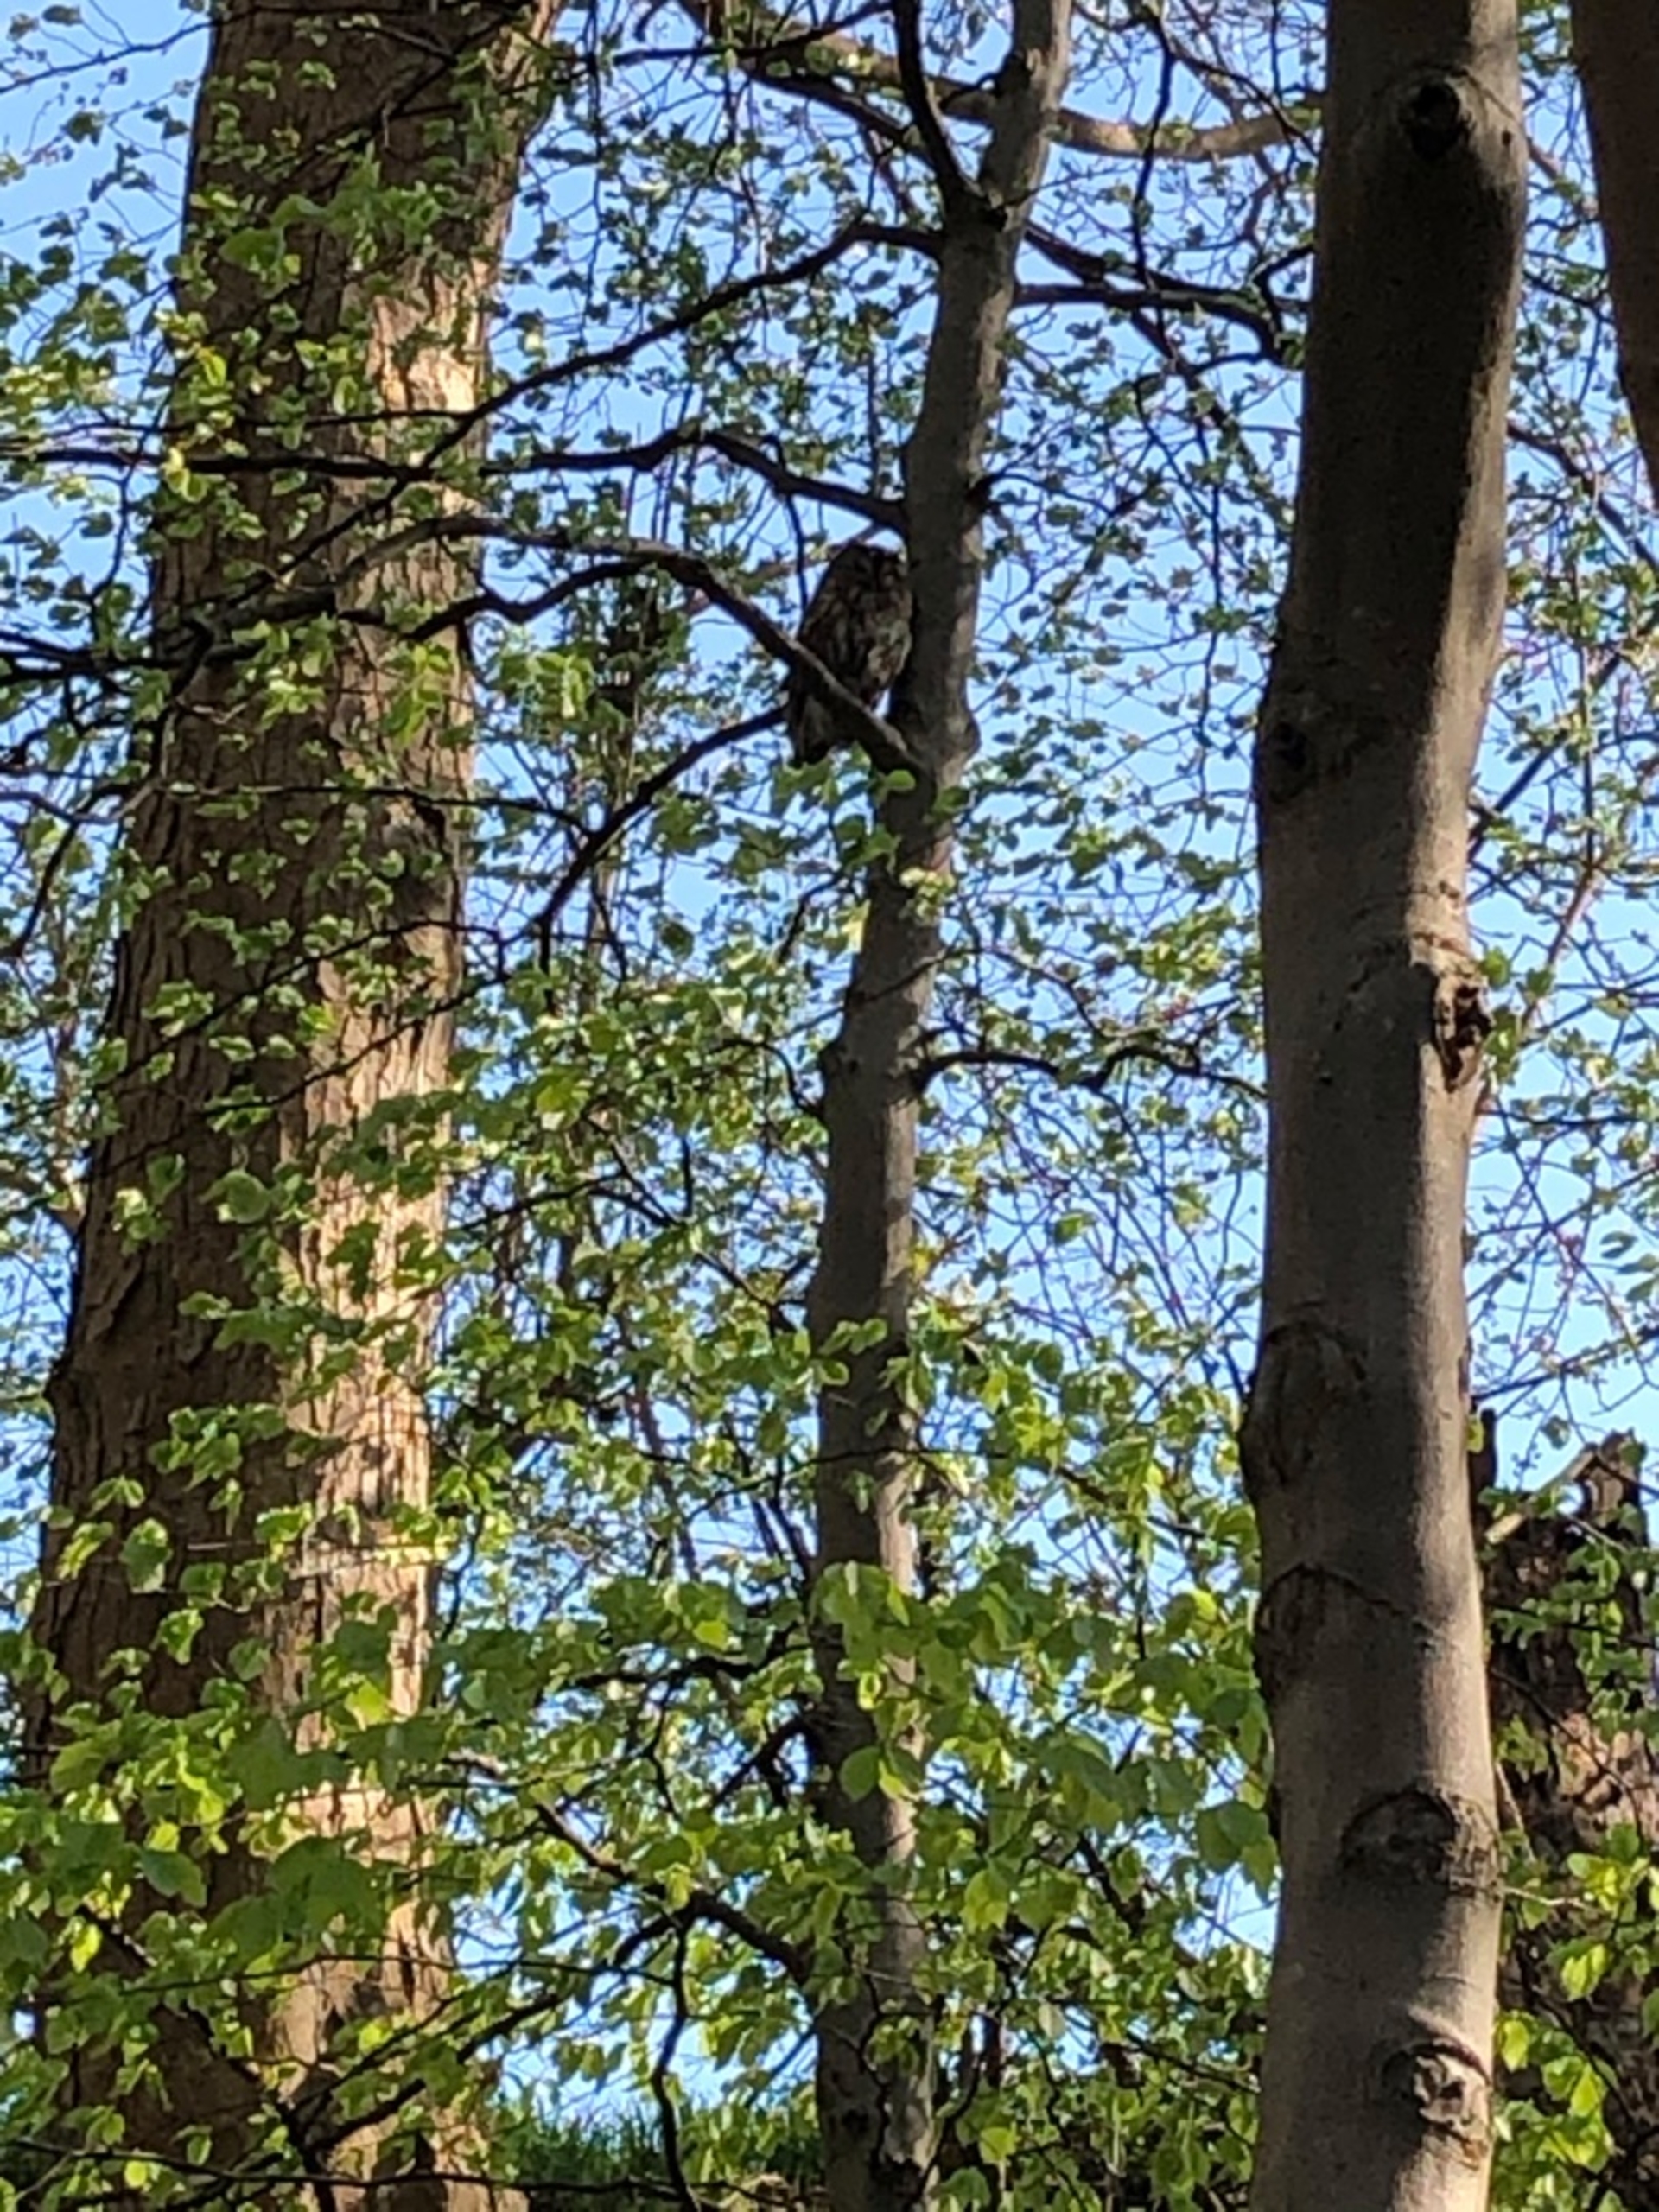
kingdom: Animalia
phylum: Chordata
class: Aves
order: Strigiformes
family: Strigidae
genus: Strix
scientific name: Strix aluco
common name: Natugle
